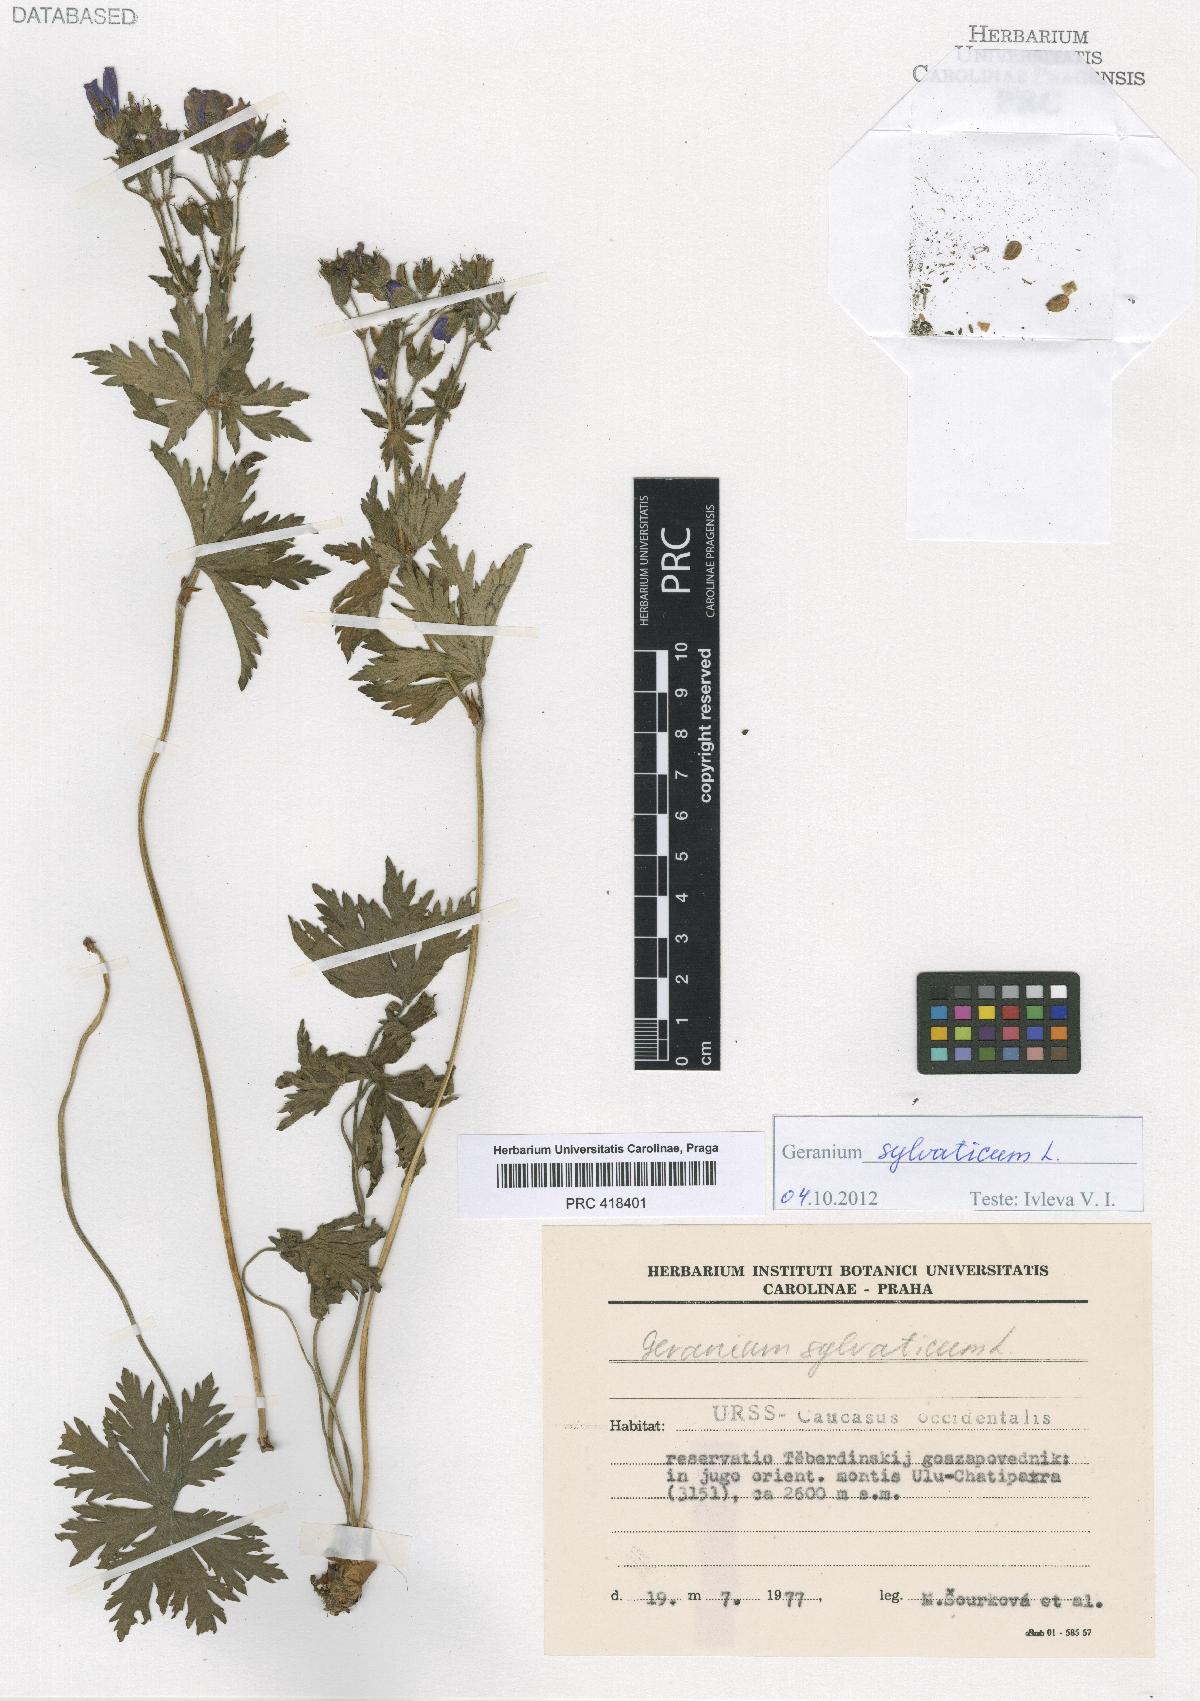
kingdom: Plantae
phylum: Tracheophyta
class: Magnoliopsida
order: Geraniales
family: Geraniaceae
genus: Geranium
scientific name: Geranium sylvaticum
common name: Wood crane's-bill
